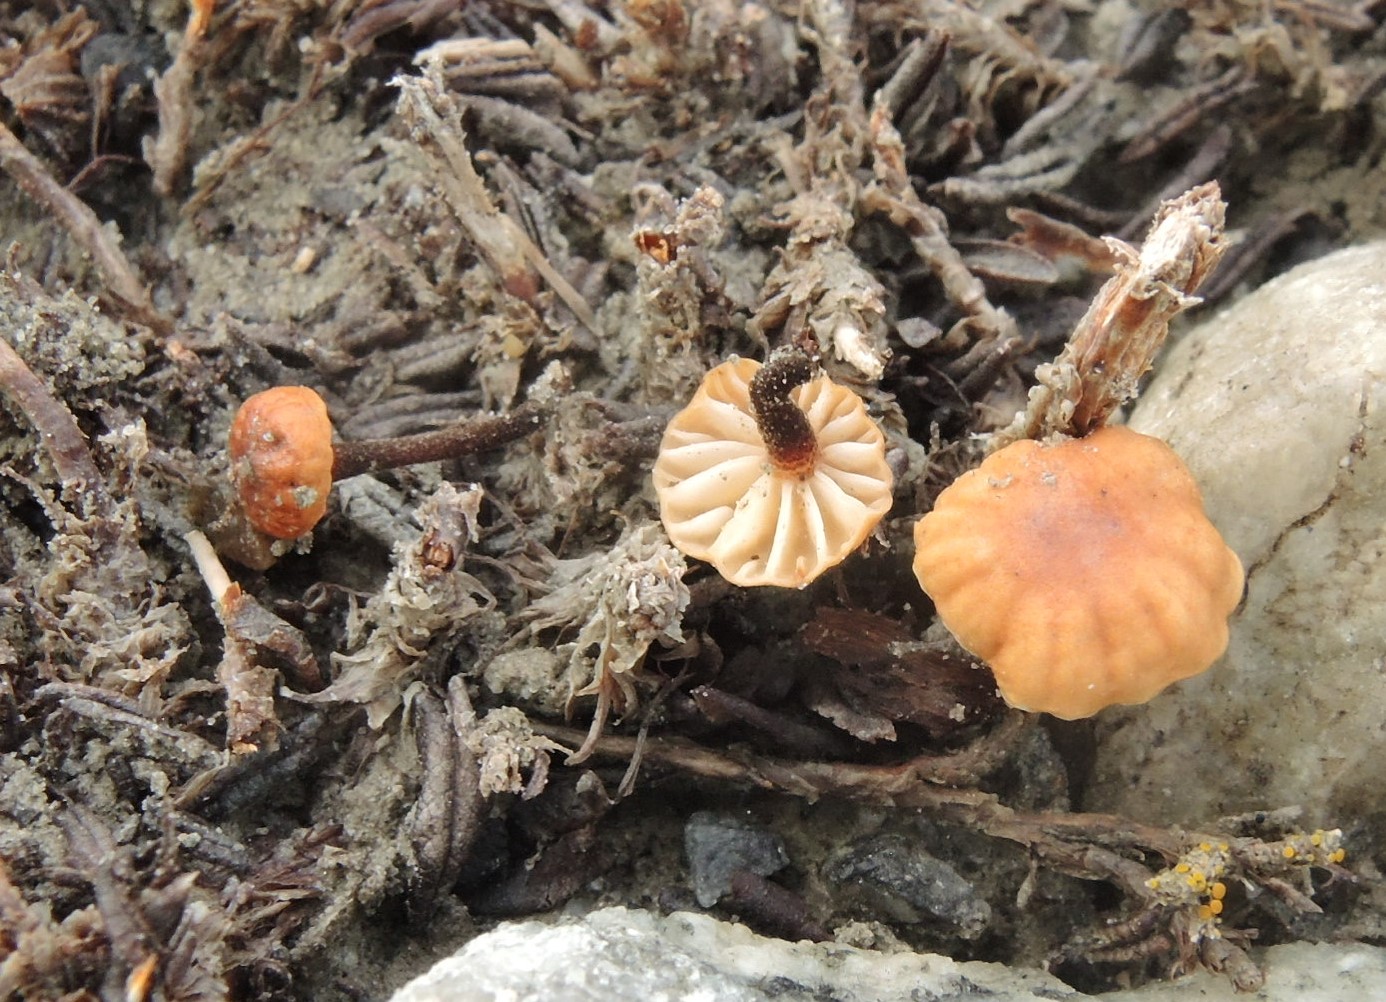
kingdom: Fungi
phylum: Basidiomycota
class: Agaricomycetes
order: Agaricales
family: Omphalotaceae
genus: Mycetinis
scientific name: Mycetinis epidryas
